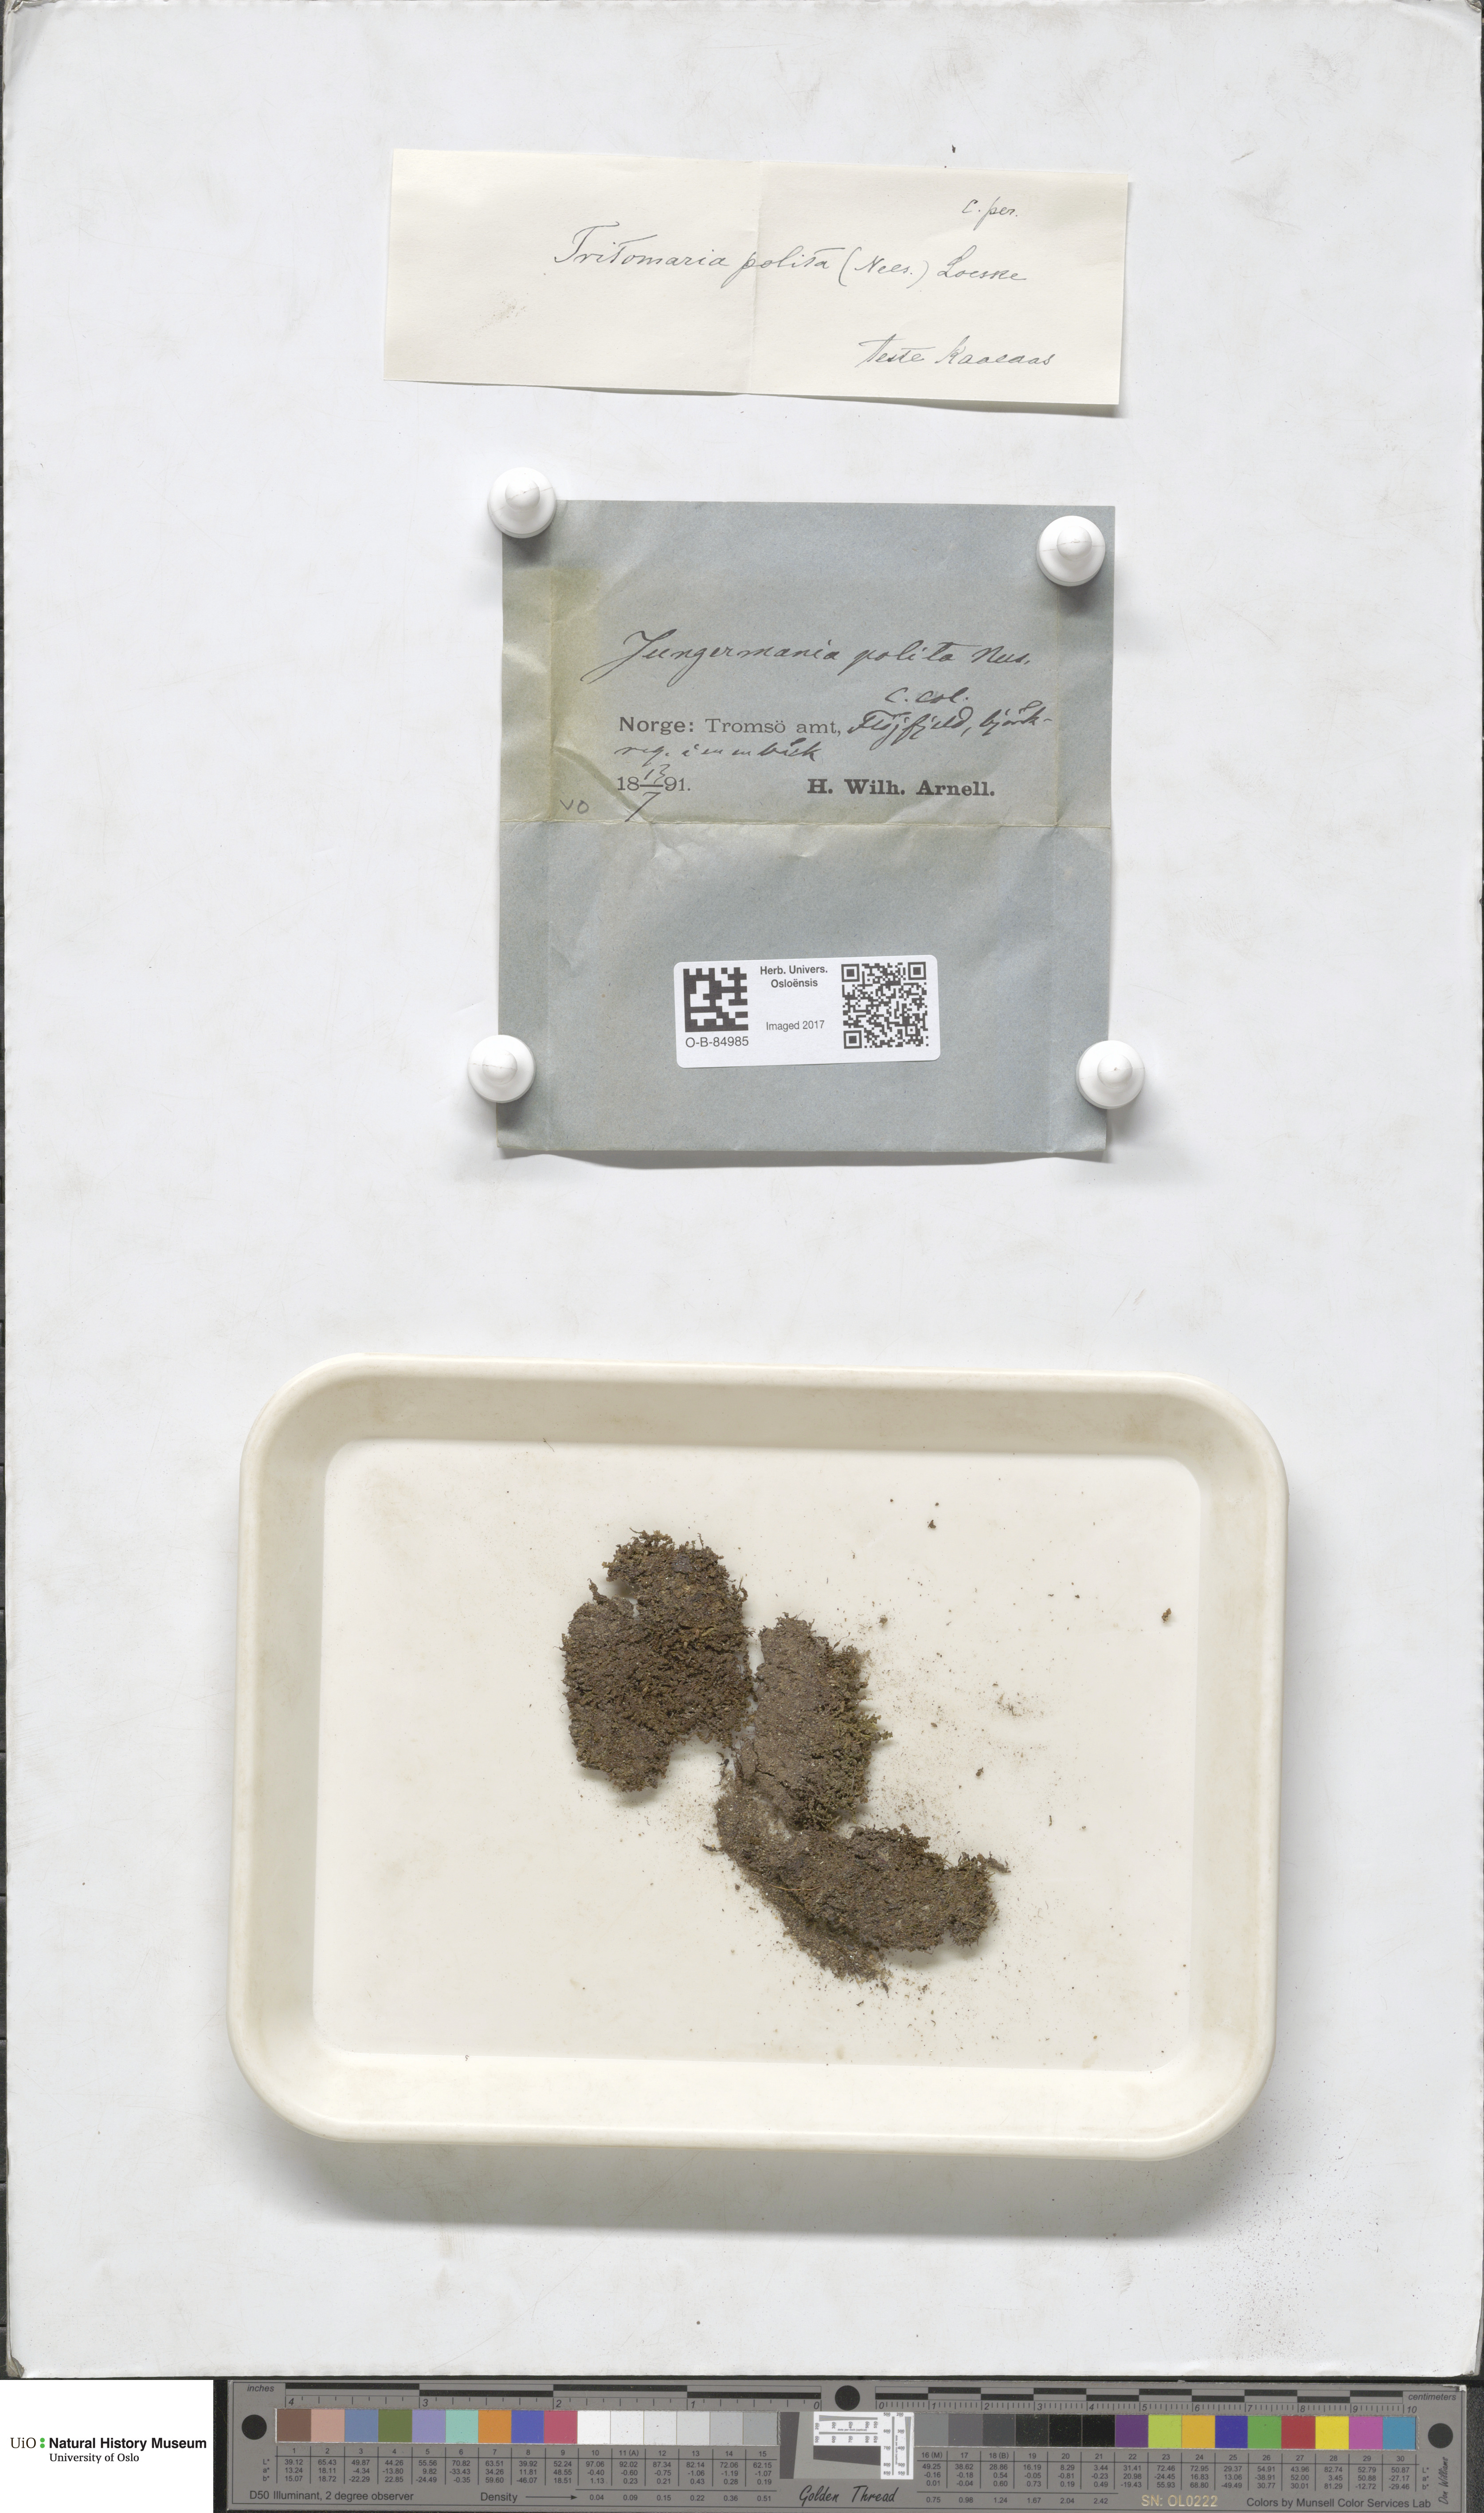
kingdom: Plantae
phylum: Marchantiophyta
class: Jungermanniopsida
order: Jungermanniales
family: Scapaniaceae
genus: Saccobasis
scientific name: Saccobasis polita
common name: Flush notchwort
